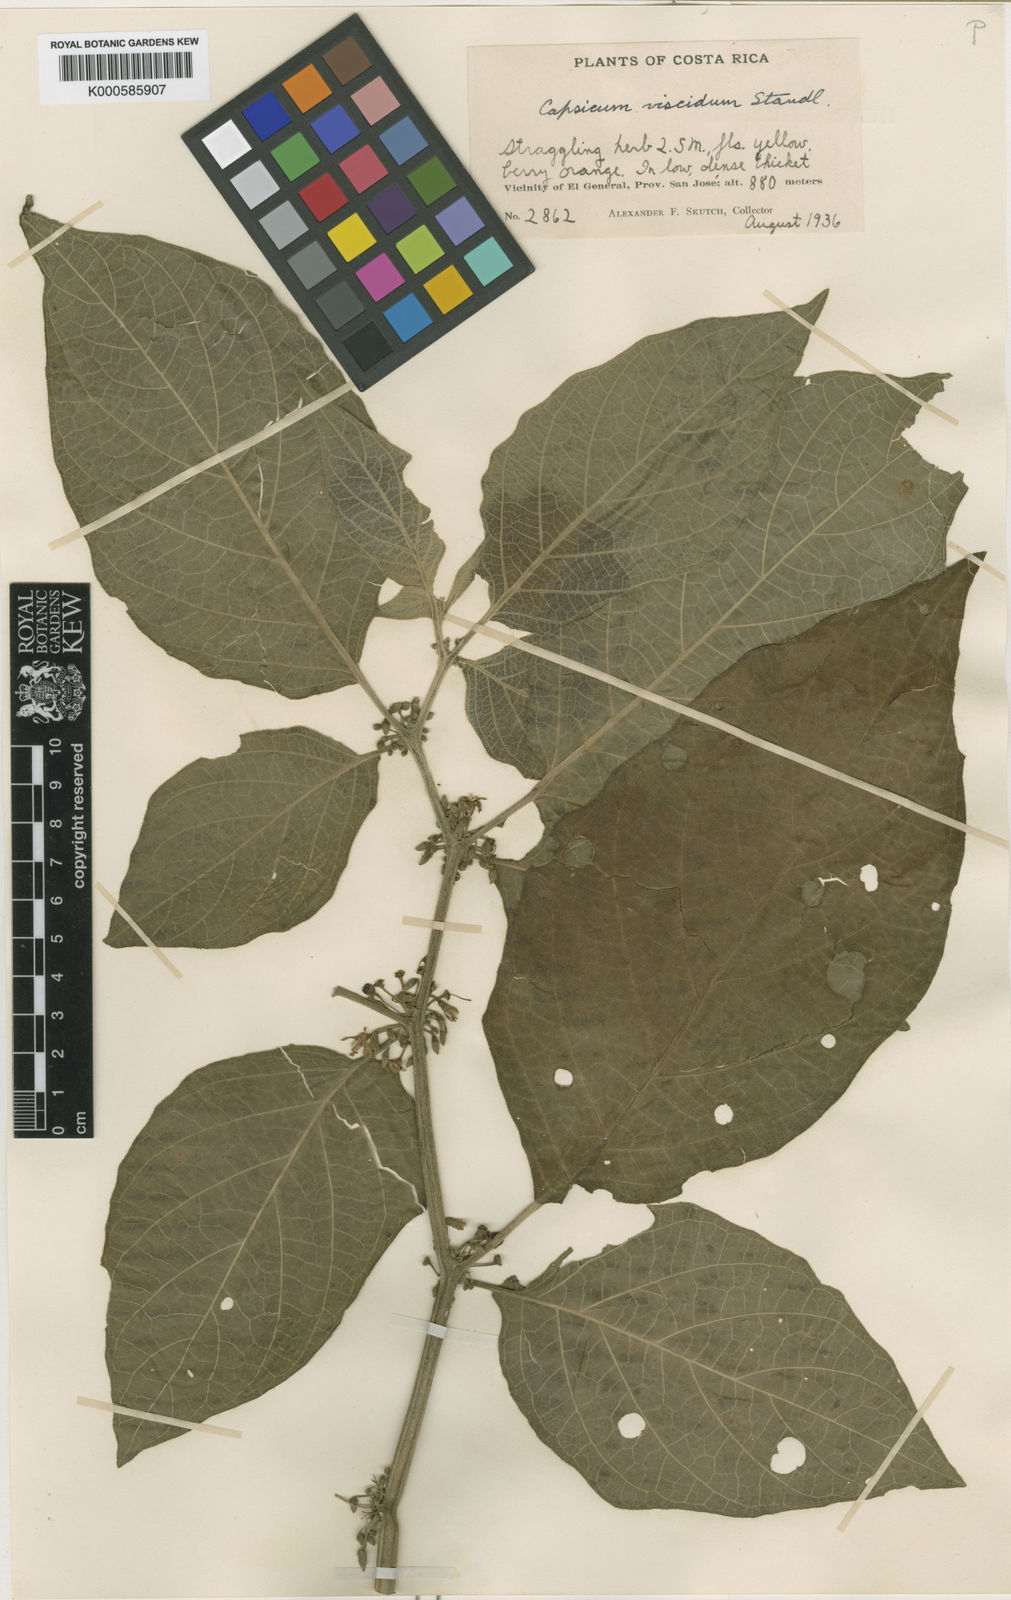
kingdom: Plantae
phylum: Tracheophyta
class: Magnoliopsida
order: Solanales
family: Solanaceae
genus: Witheringia
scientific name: Witheringia
